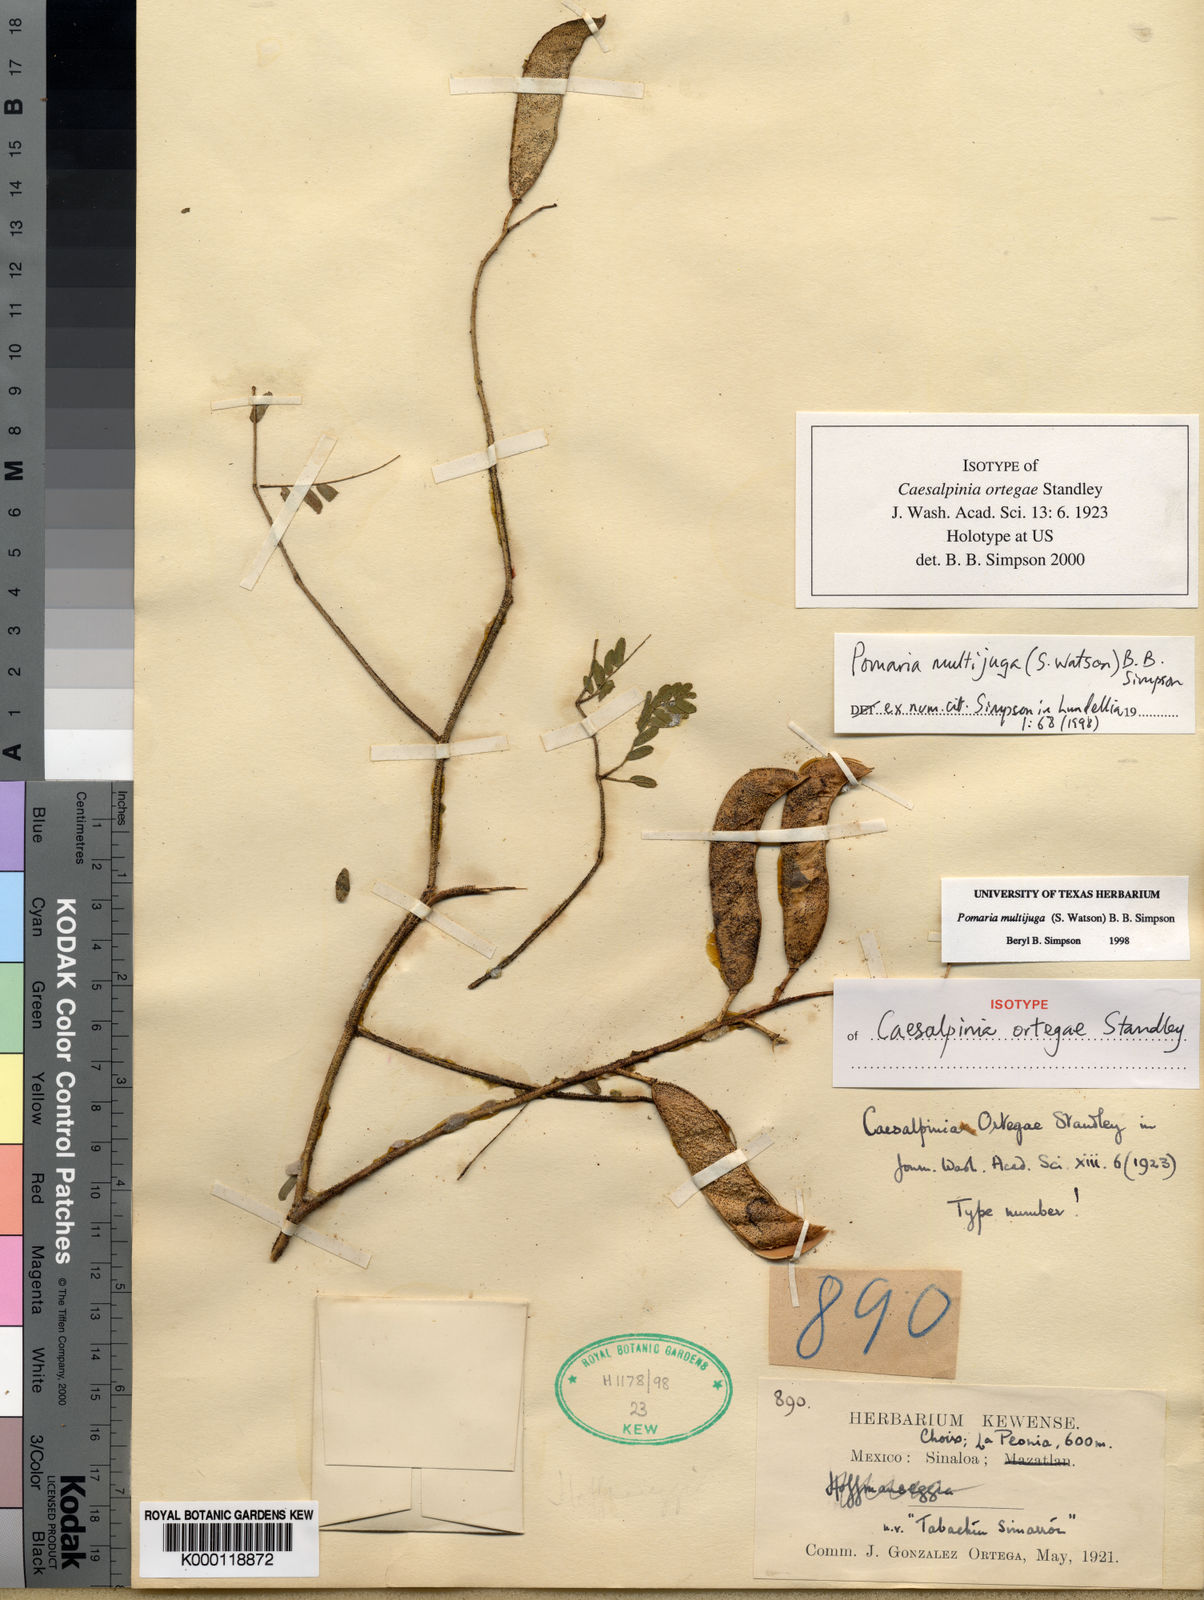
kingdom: Plantae
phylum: Tracheophyta
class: Magnoliopsida
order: Fabales
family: Fabaceae
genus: Pomaria
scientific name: Pomaria multijuga
